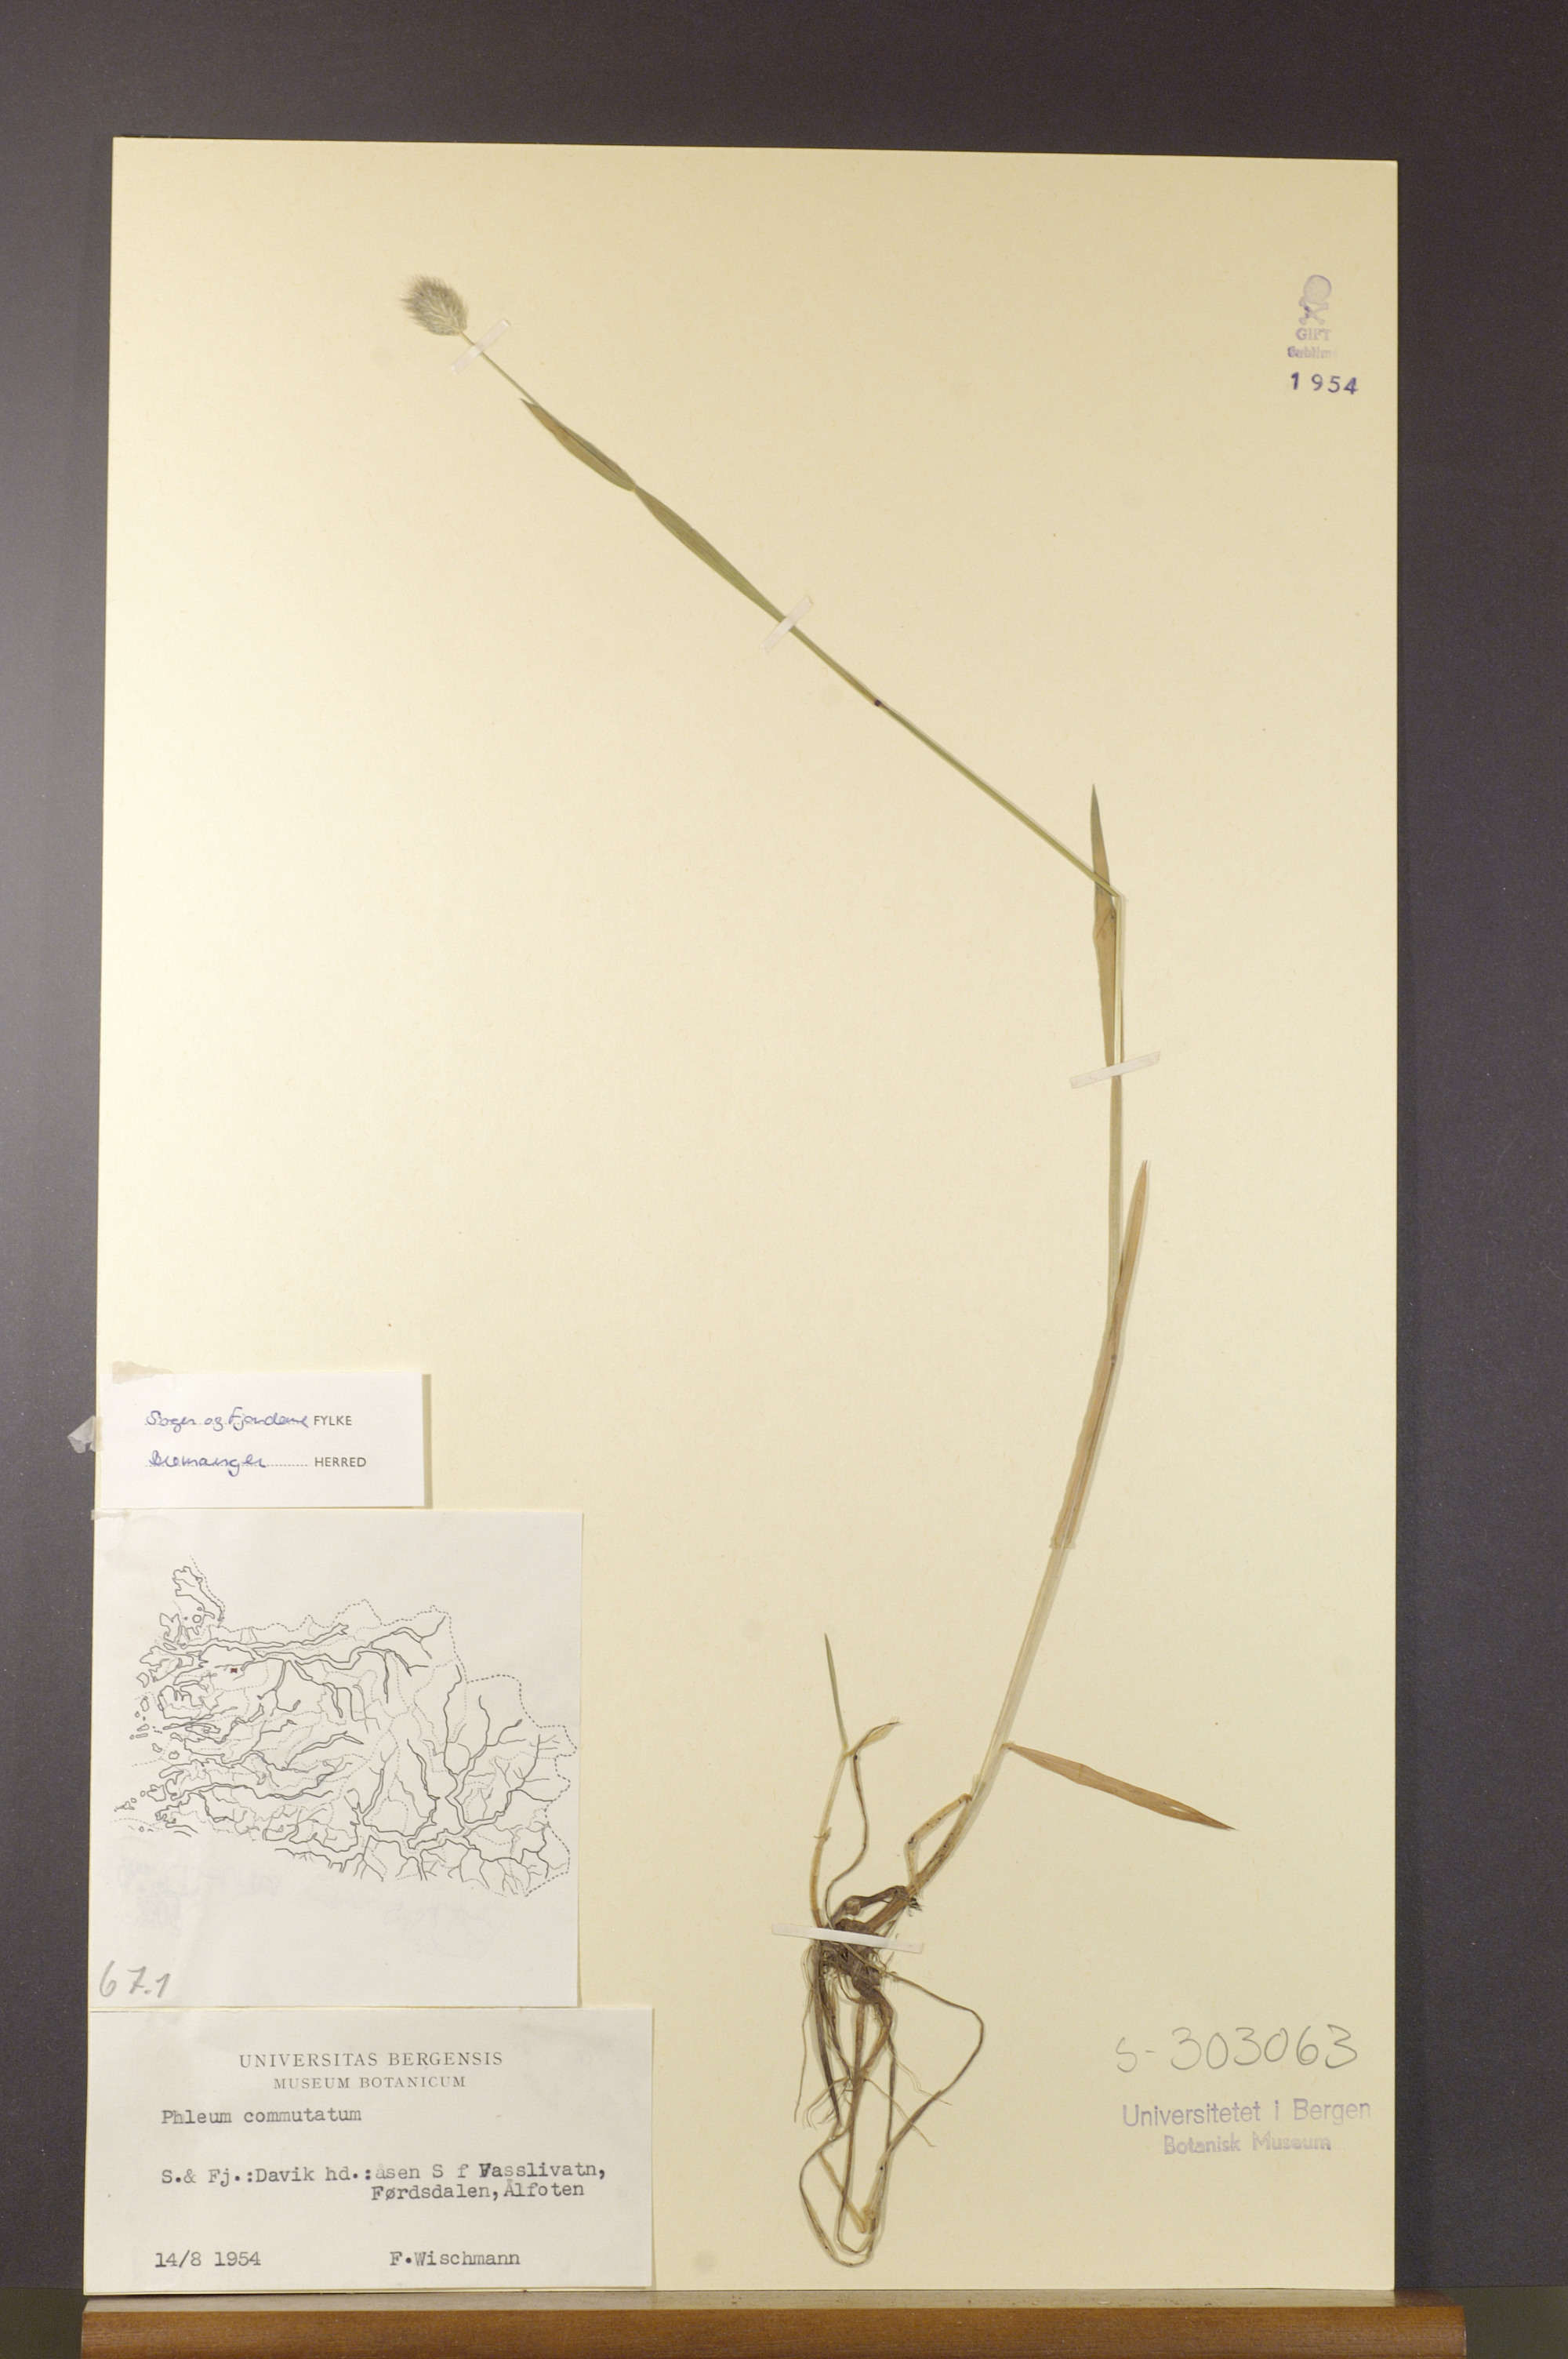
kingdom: Plantae
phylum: Tracheophyta
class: Liliopsida
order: Poales
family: Poaceae
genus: Phleum
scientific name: Phleum alpinum
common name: Alpine cat's-tail
